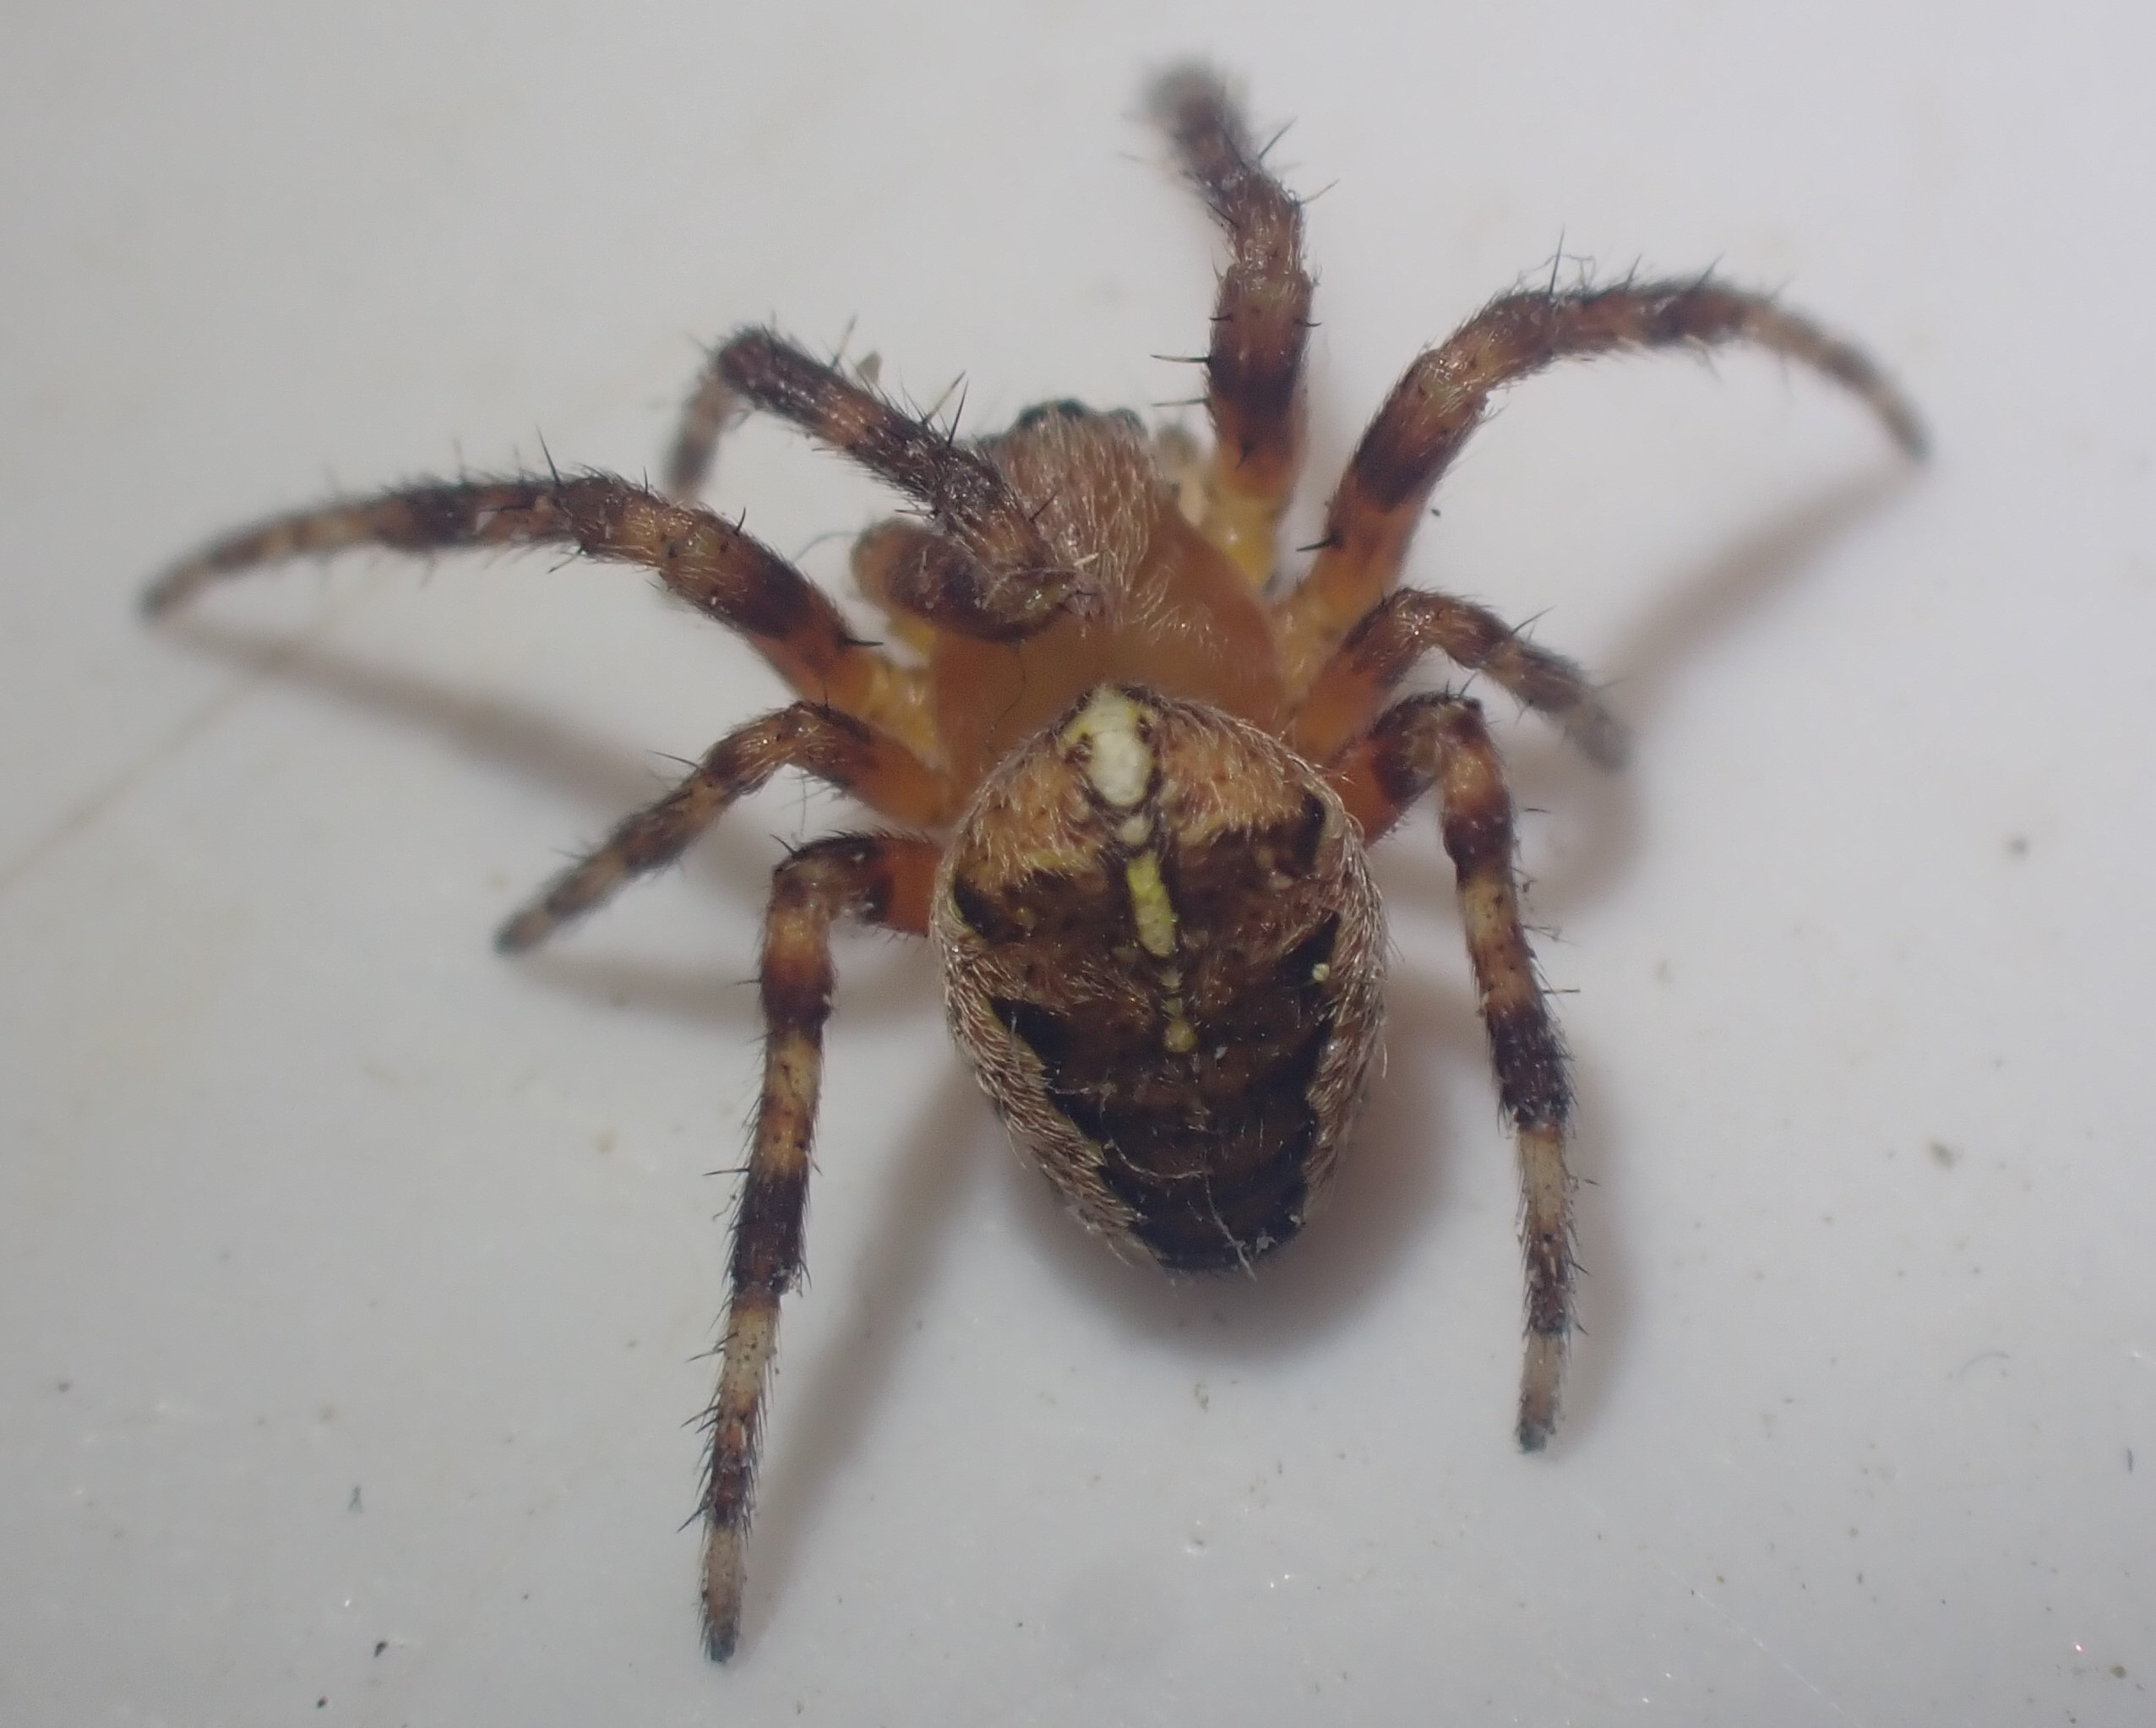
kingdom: Animalia
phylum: Arthropoda
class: Arachnida
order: Araneae
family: Araneidae
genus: Araneus
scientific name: Araneus diadematus
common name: Korsedderkop
